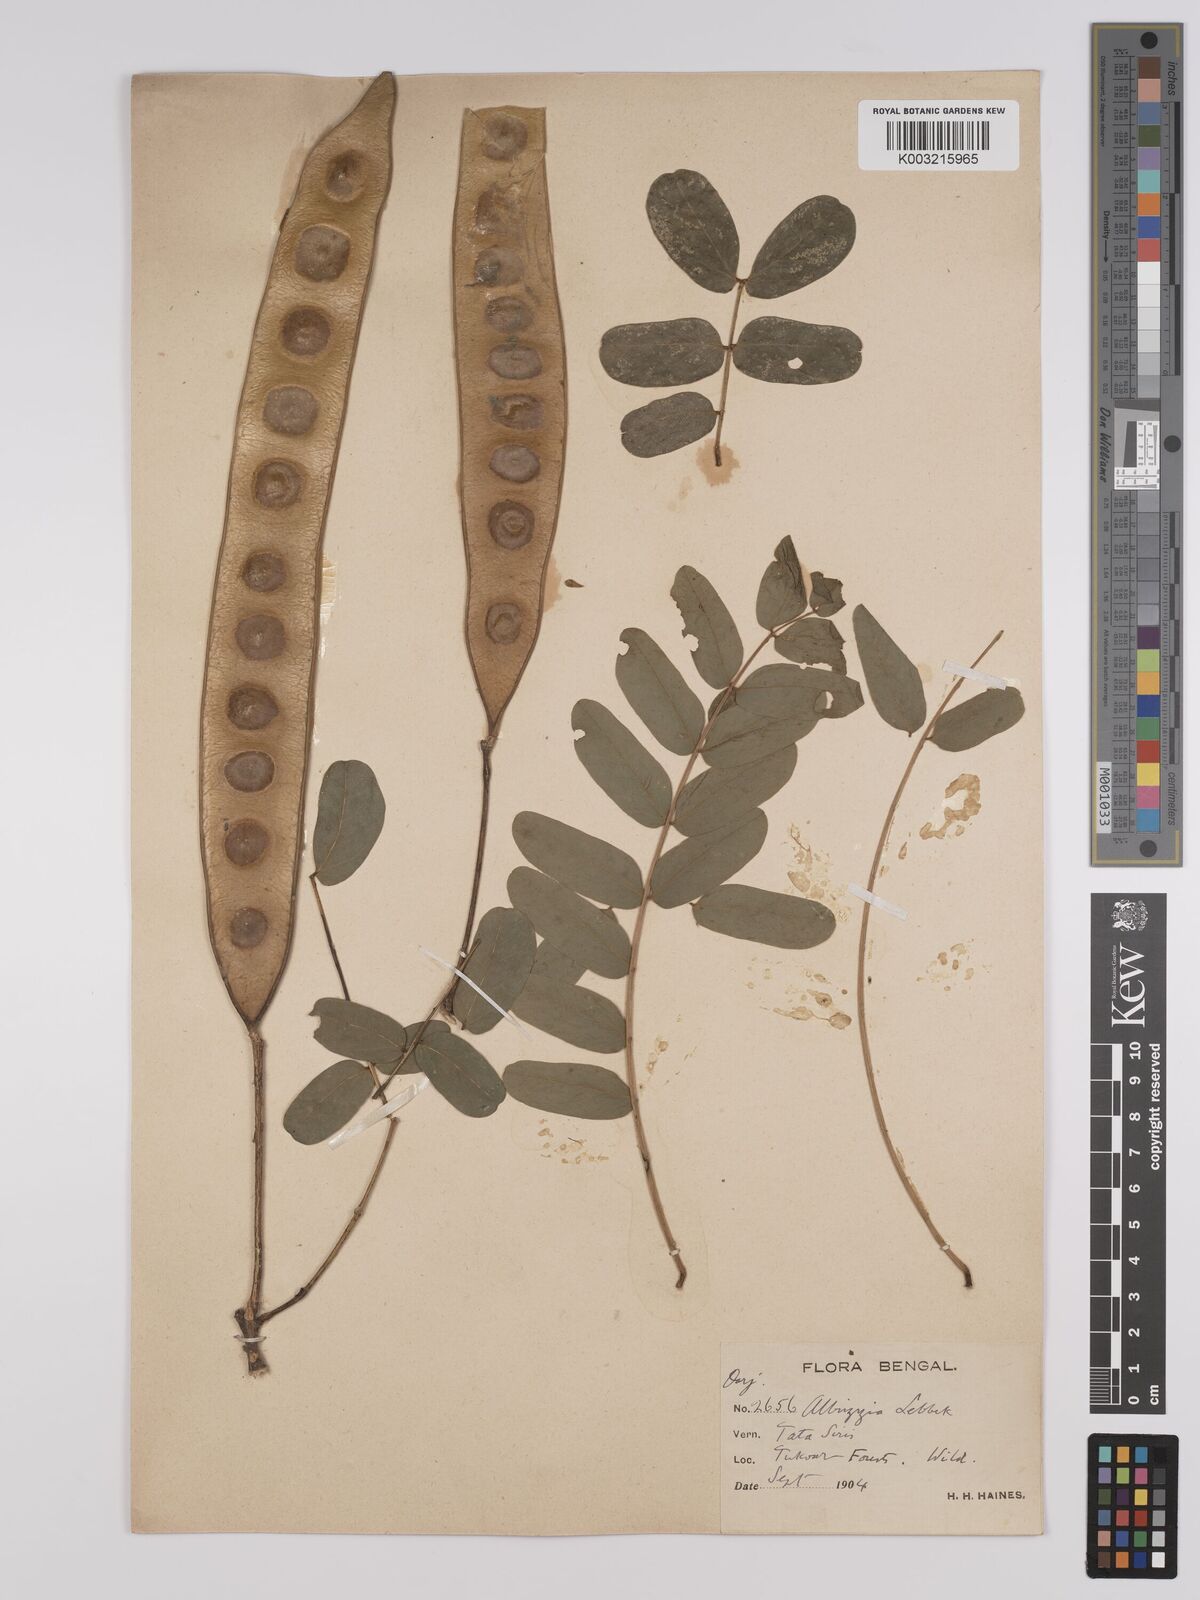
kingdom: Plantae
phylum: Tracheophyta
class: Magnoliopsida
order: Fabales
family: Fabaceae
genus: Albizia
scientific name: Albizia lebbeck
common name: Woman's tongue
